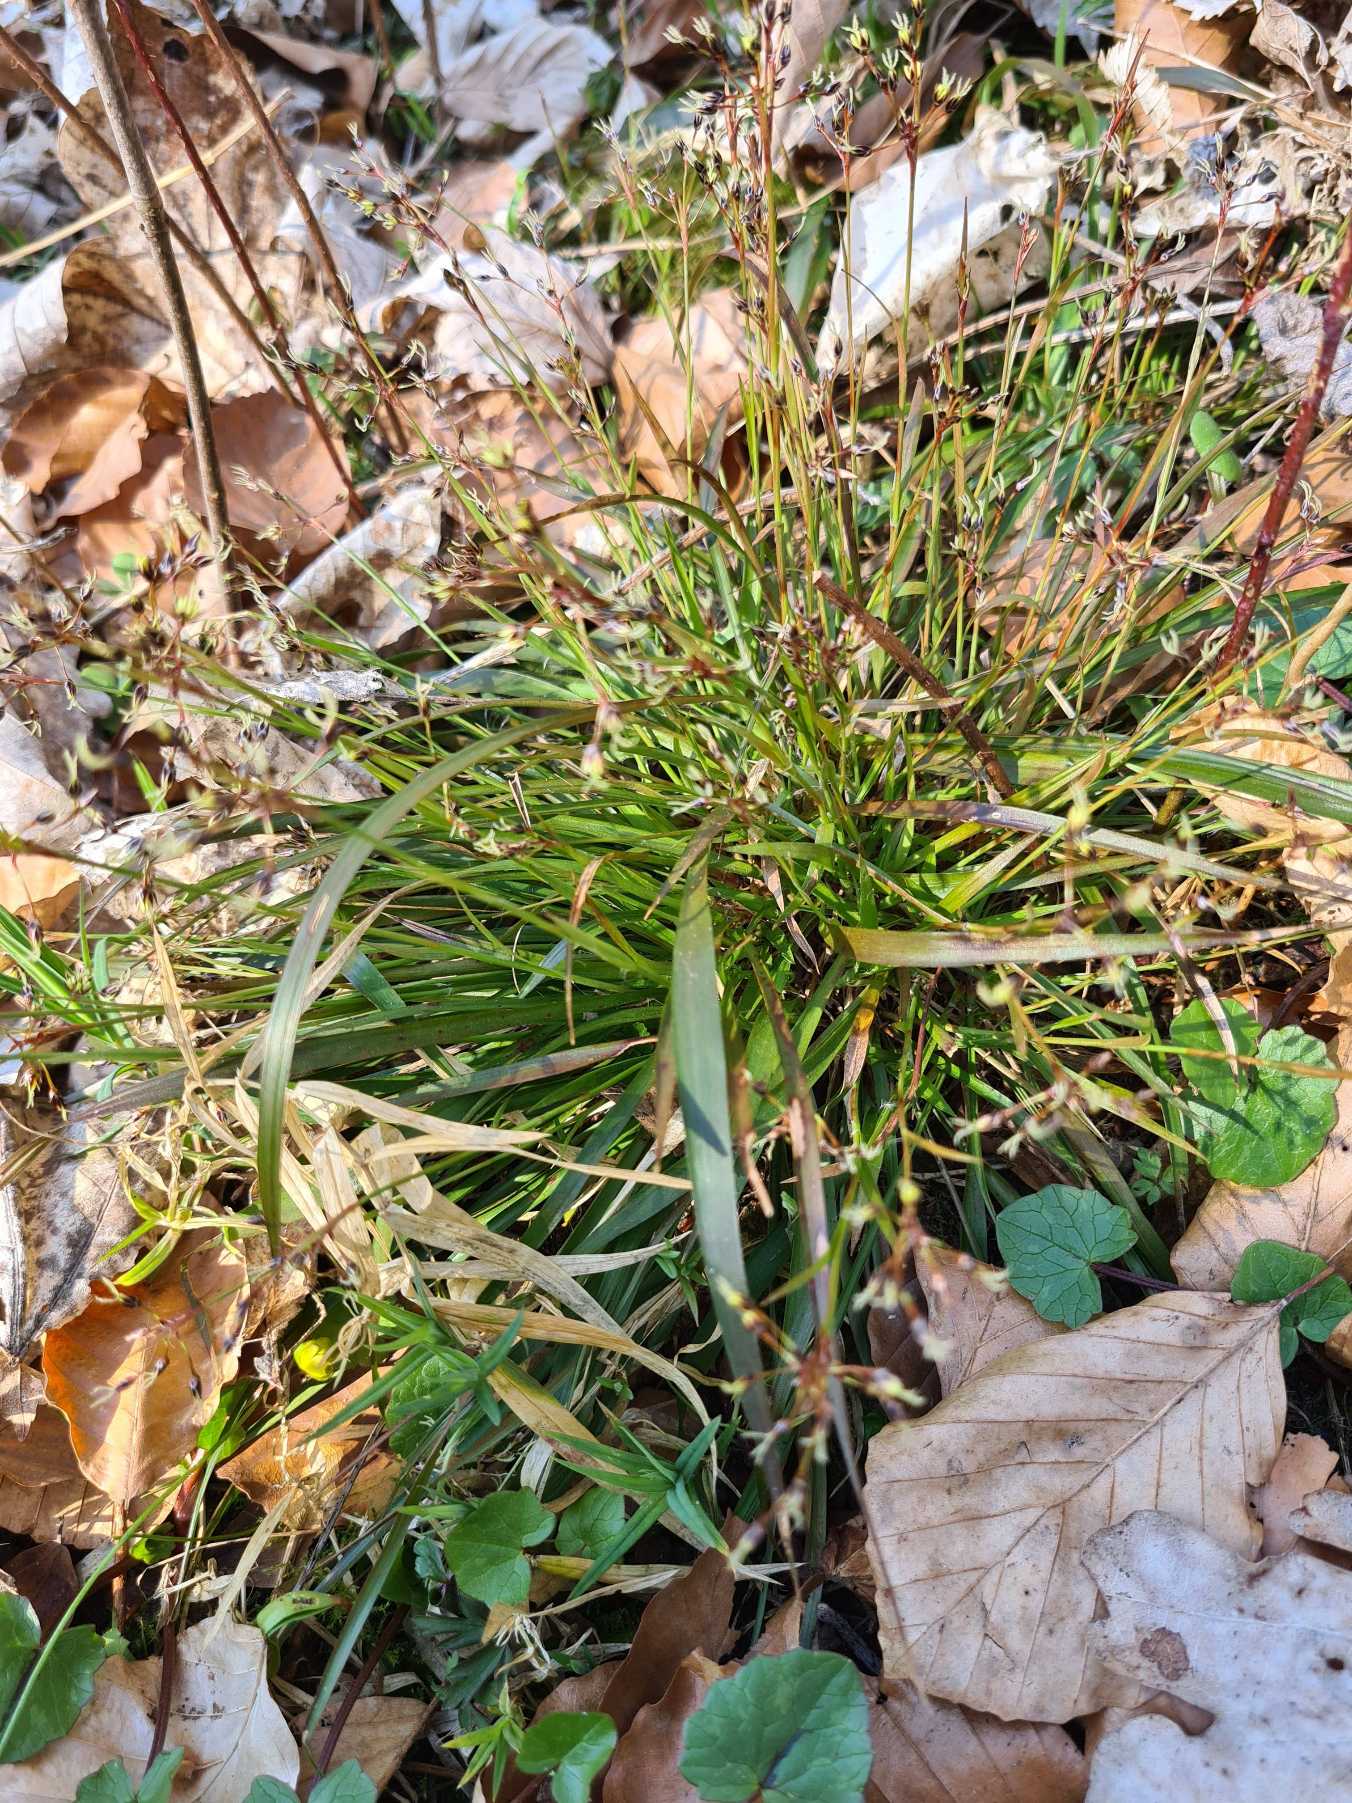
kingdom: Plantae
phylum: Tracheophyta
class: Liliopsida
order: Poales
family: Juncaceae
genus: Luzula
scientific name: Luzula pilosa
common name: Håret frytle
